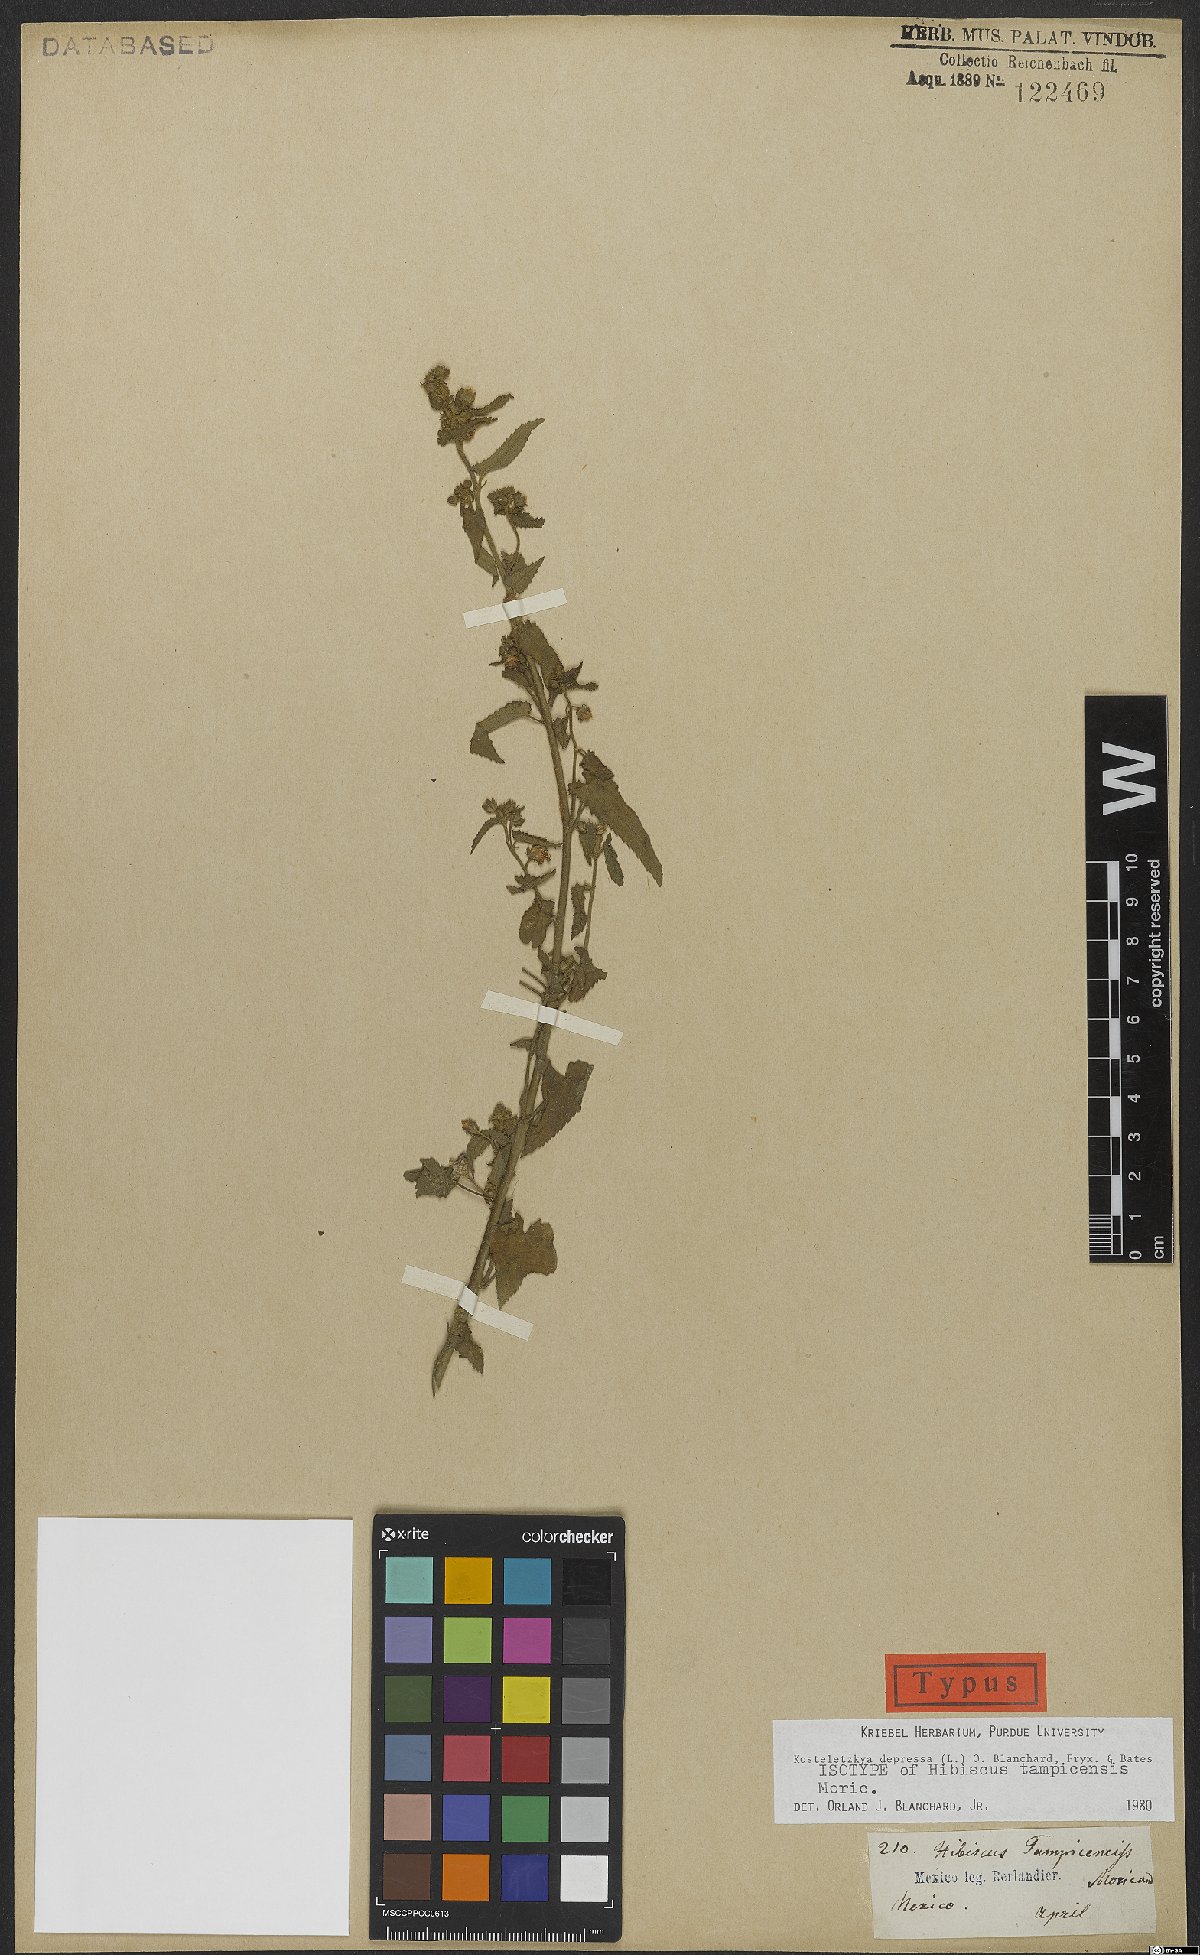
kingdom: Plantae
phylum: Tracheophyta
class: Magnoliopsida
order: Malvales
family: Malvaceae
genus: Kosteletzkya
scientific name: Kosteletzkya depressa
